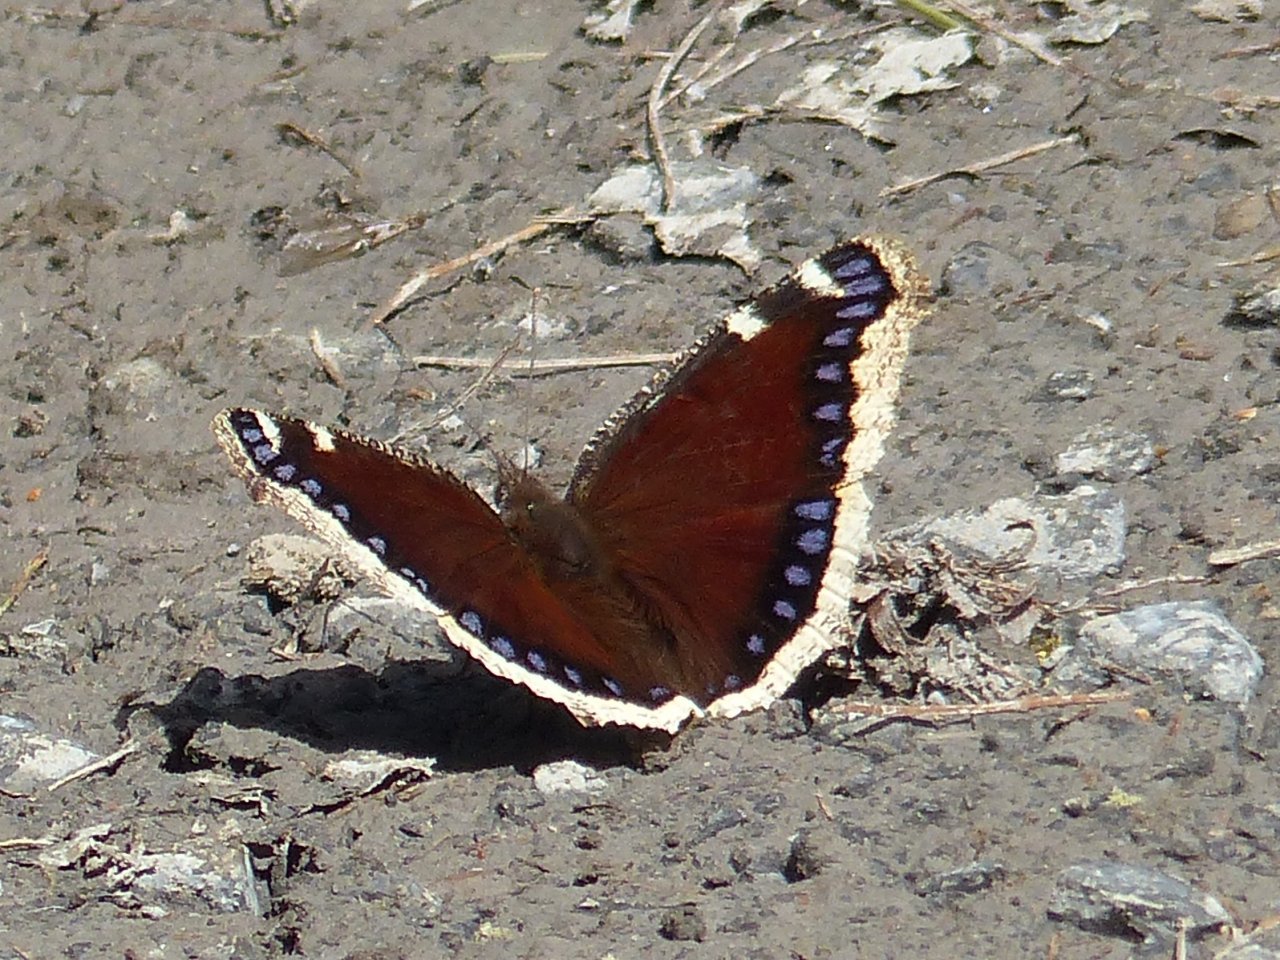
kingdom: Animalia
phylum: Arthropoda
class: Insecta
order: Lepidoptera
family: Nymphalidae
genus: Nymphalis
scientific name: Nymphalis antiopa
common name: Mourning Cloak
